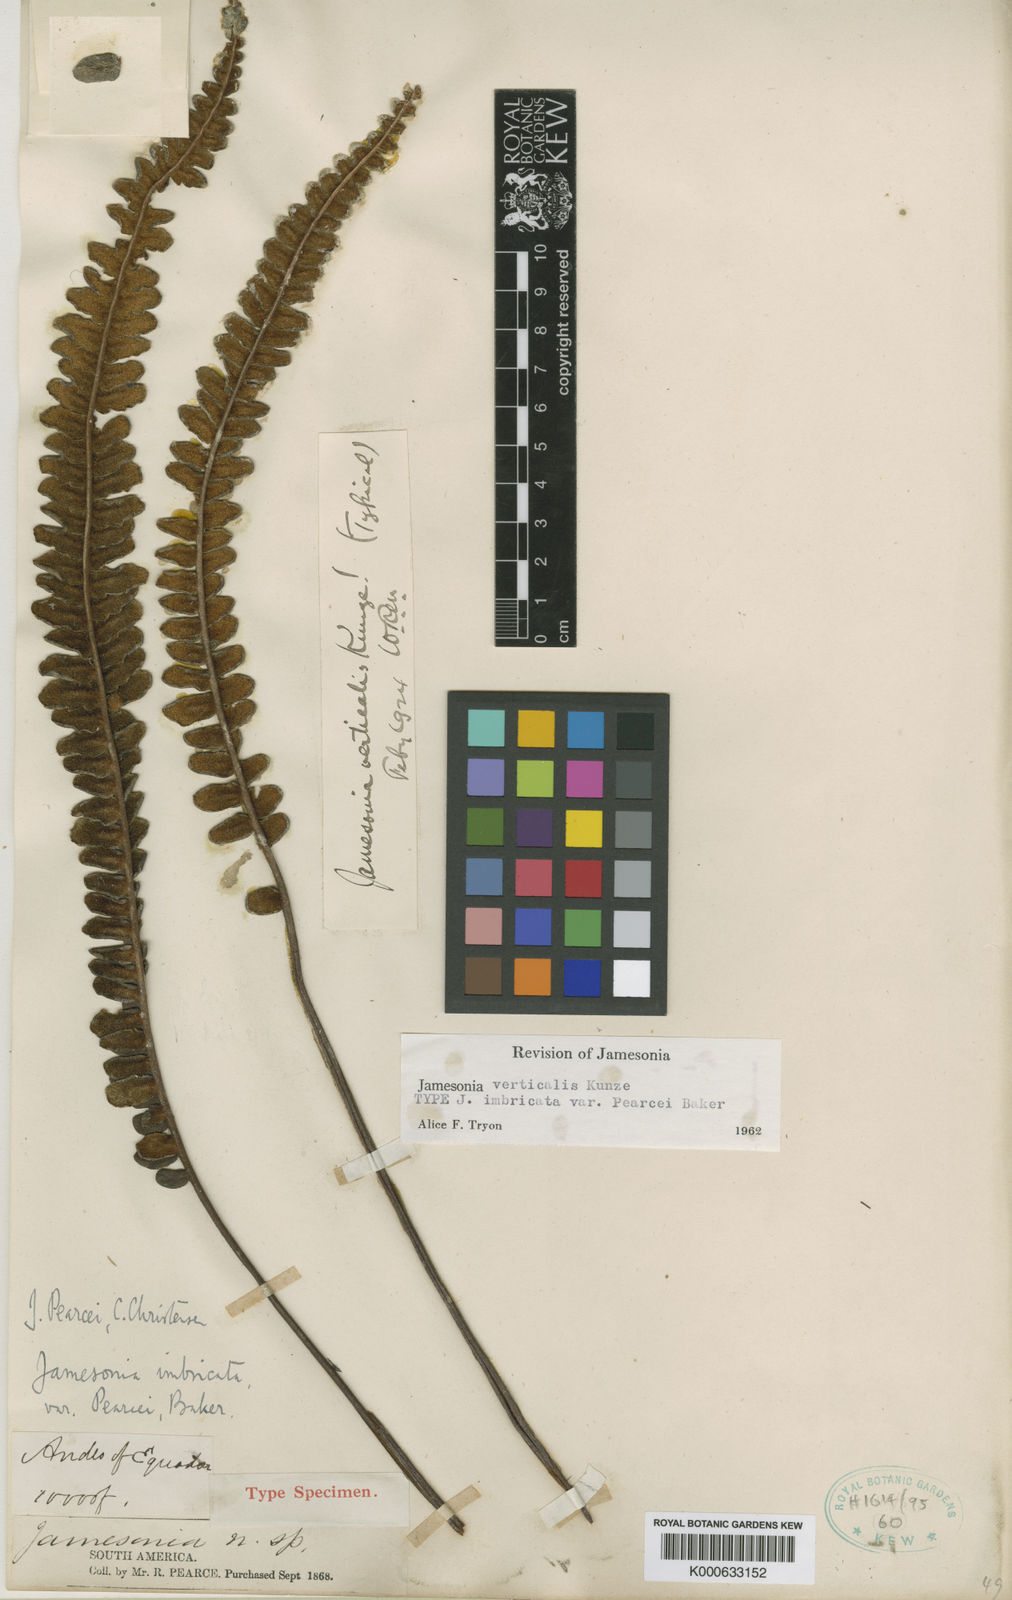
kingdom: Plantae
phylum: Tracheophyta
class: Polypodiopsida
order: Polypodiales
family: Pteridaceae
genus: Jamesonia
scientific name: Jamesonia imbricata
